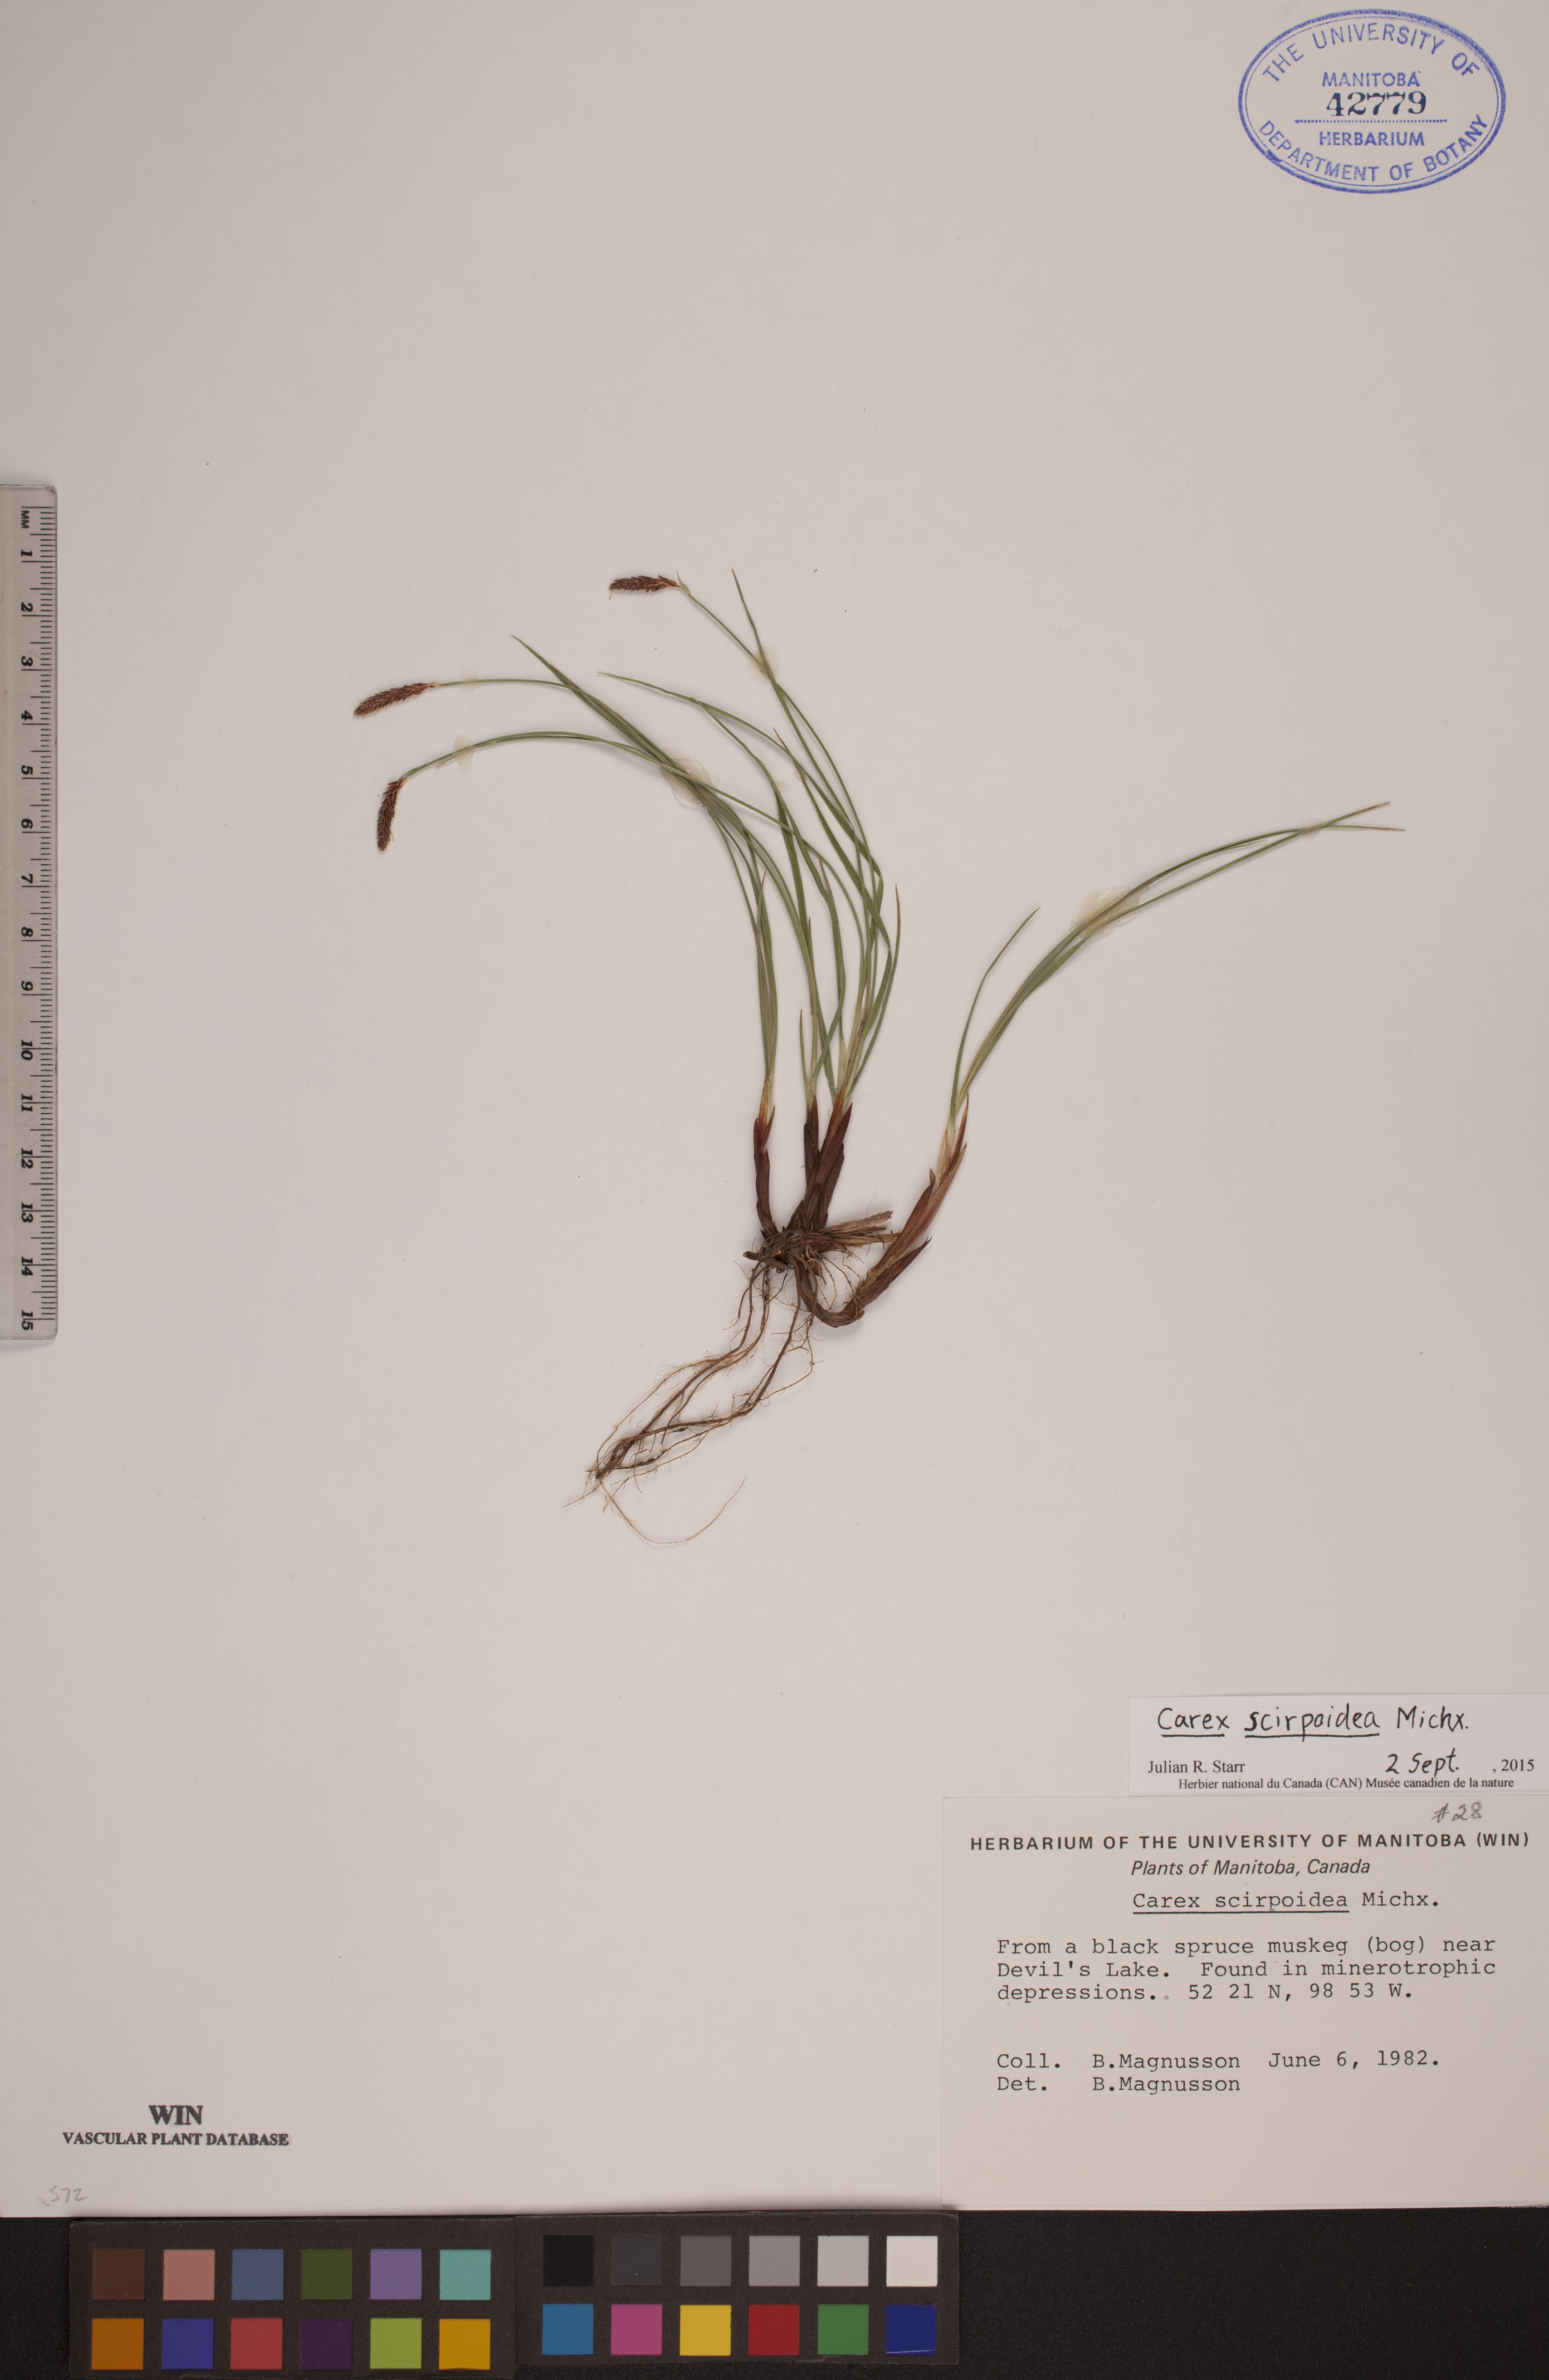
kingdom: Plantae
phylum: Tracheophyta
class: Liliopsida
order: Poales
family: Cyperaceae
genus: Carex
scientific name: Carex scirpoidea
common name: Canada single-spike sedge
